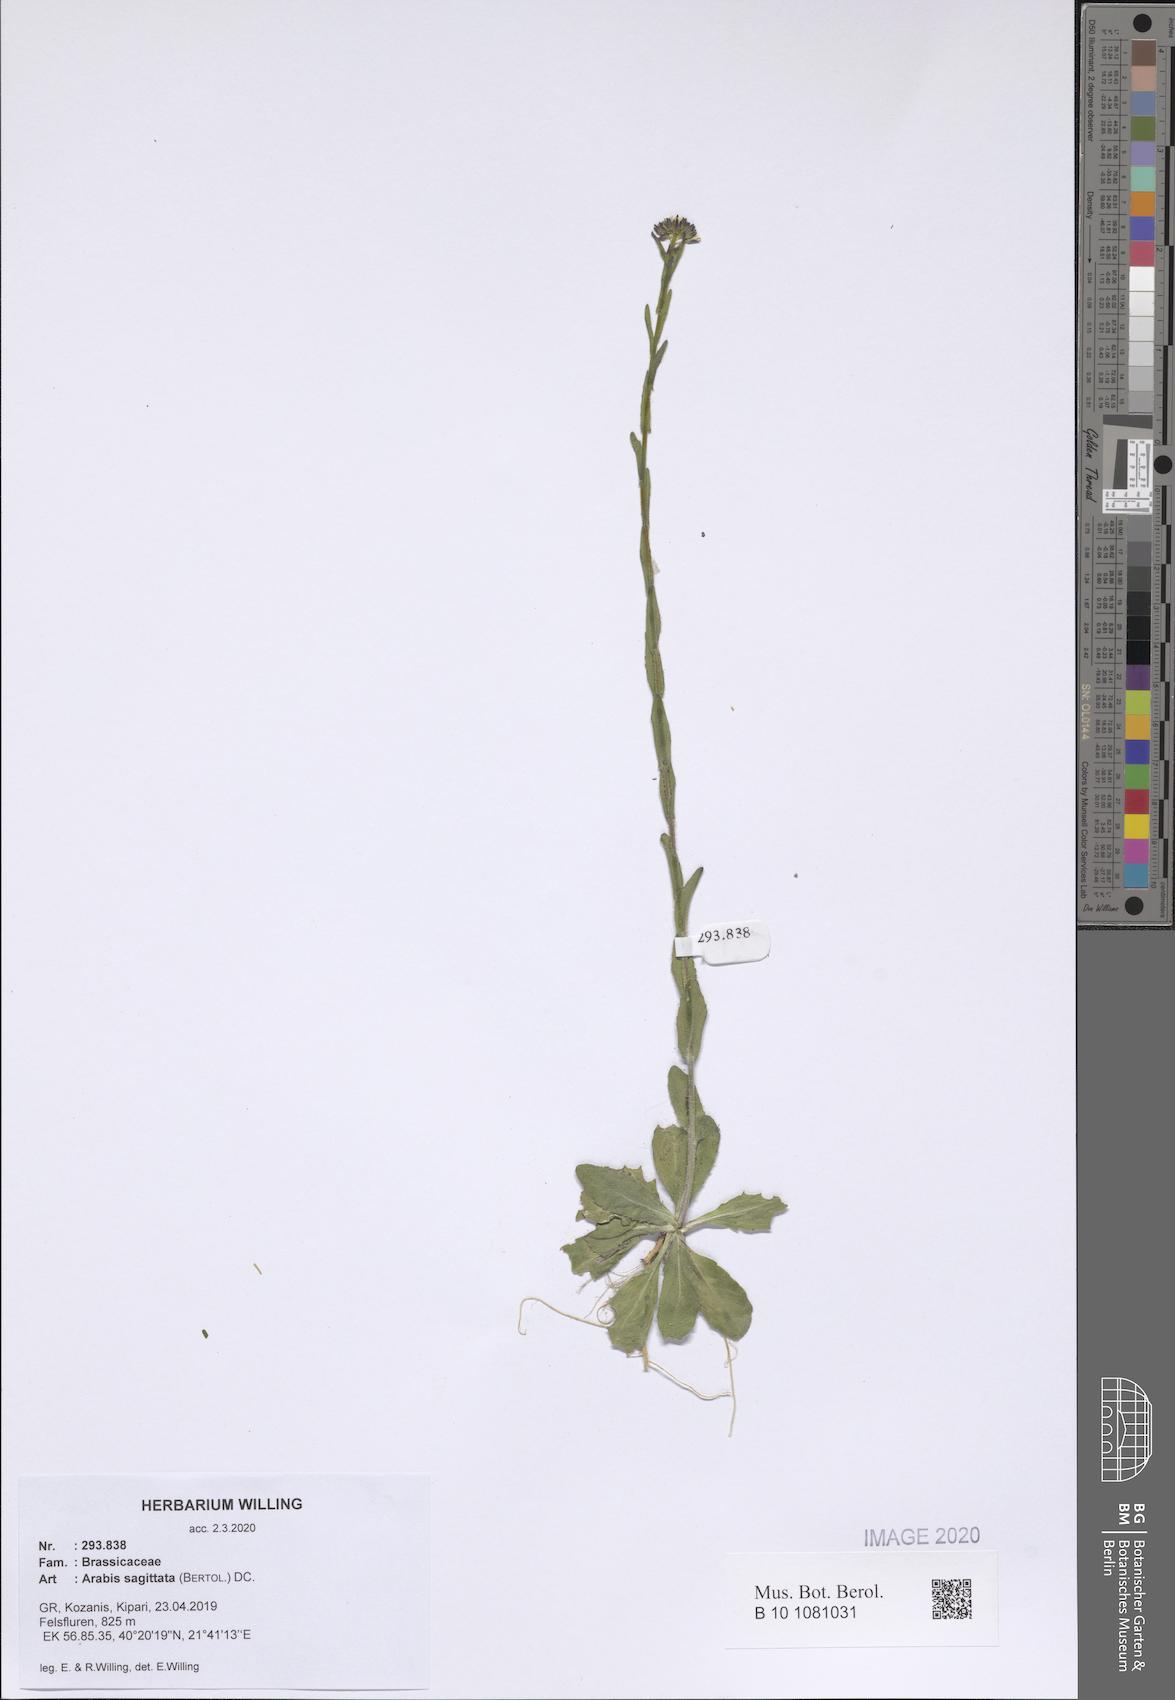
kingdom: Plantae
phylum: Tracheophyta
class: Magnoliopsida
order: Brassicales
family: Brassicaceae
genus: Arabis
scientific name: Arabis sagittata
